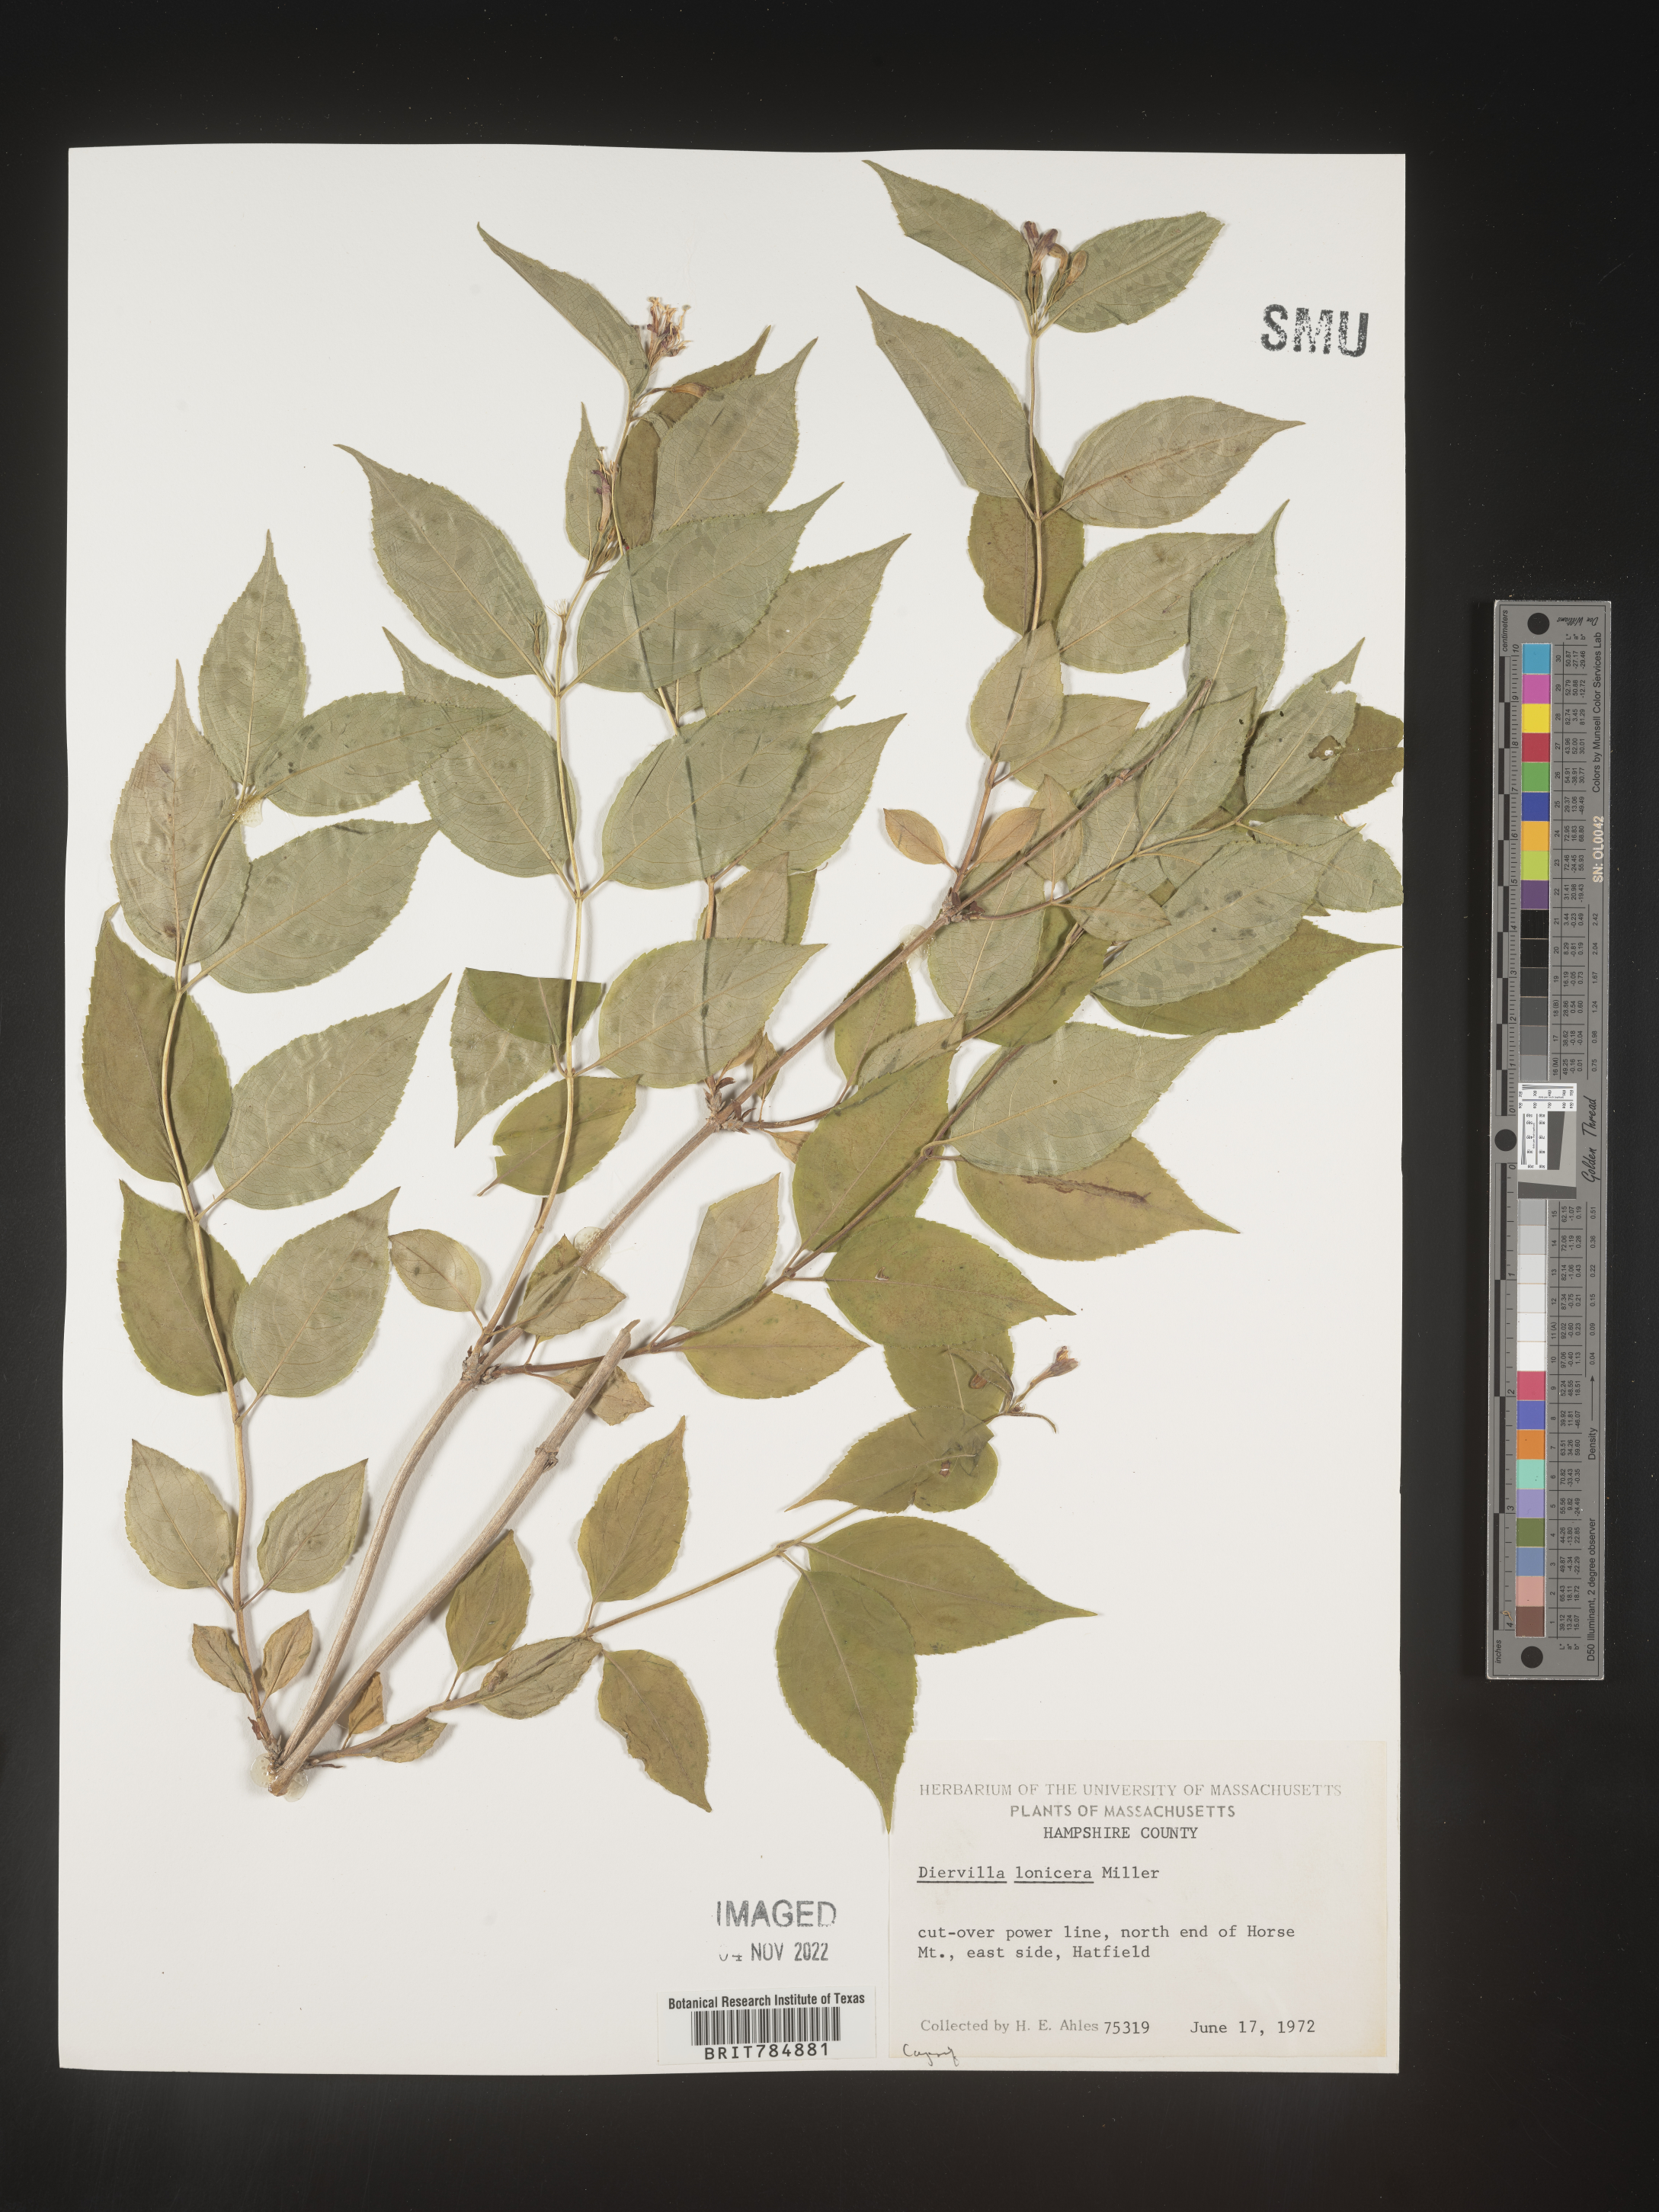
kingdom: Plantae
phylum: Tracheophyta
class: Magnoliopsida
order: Dipsacales
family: Caprifoliaceae
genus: Diervilla
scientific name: Diervilla lonicera
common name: Bush-honeysuckle
